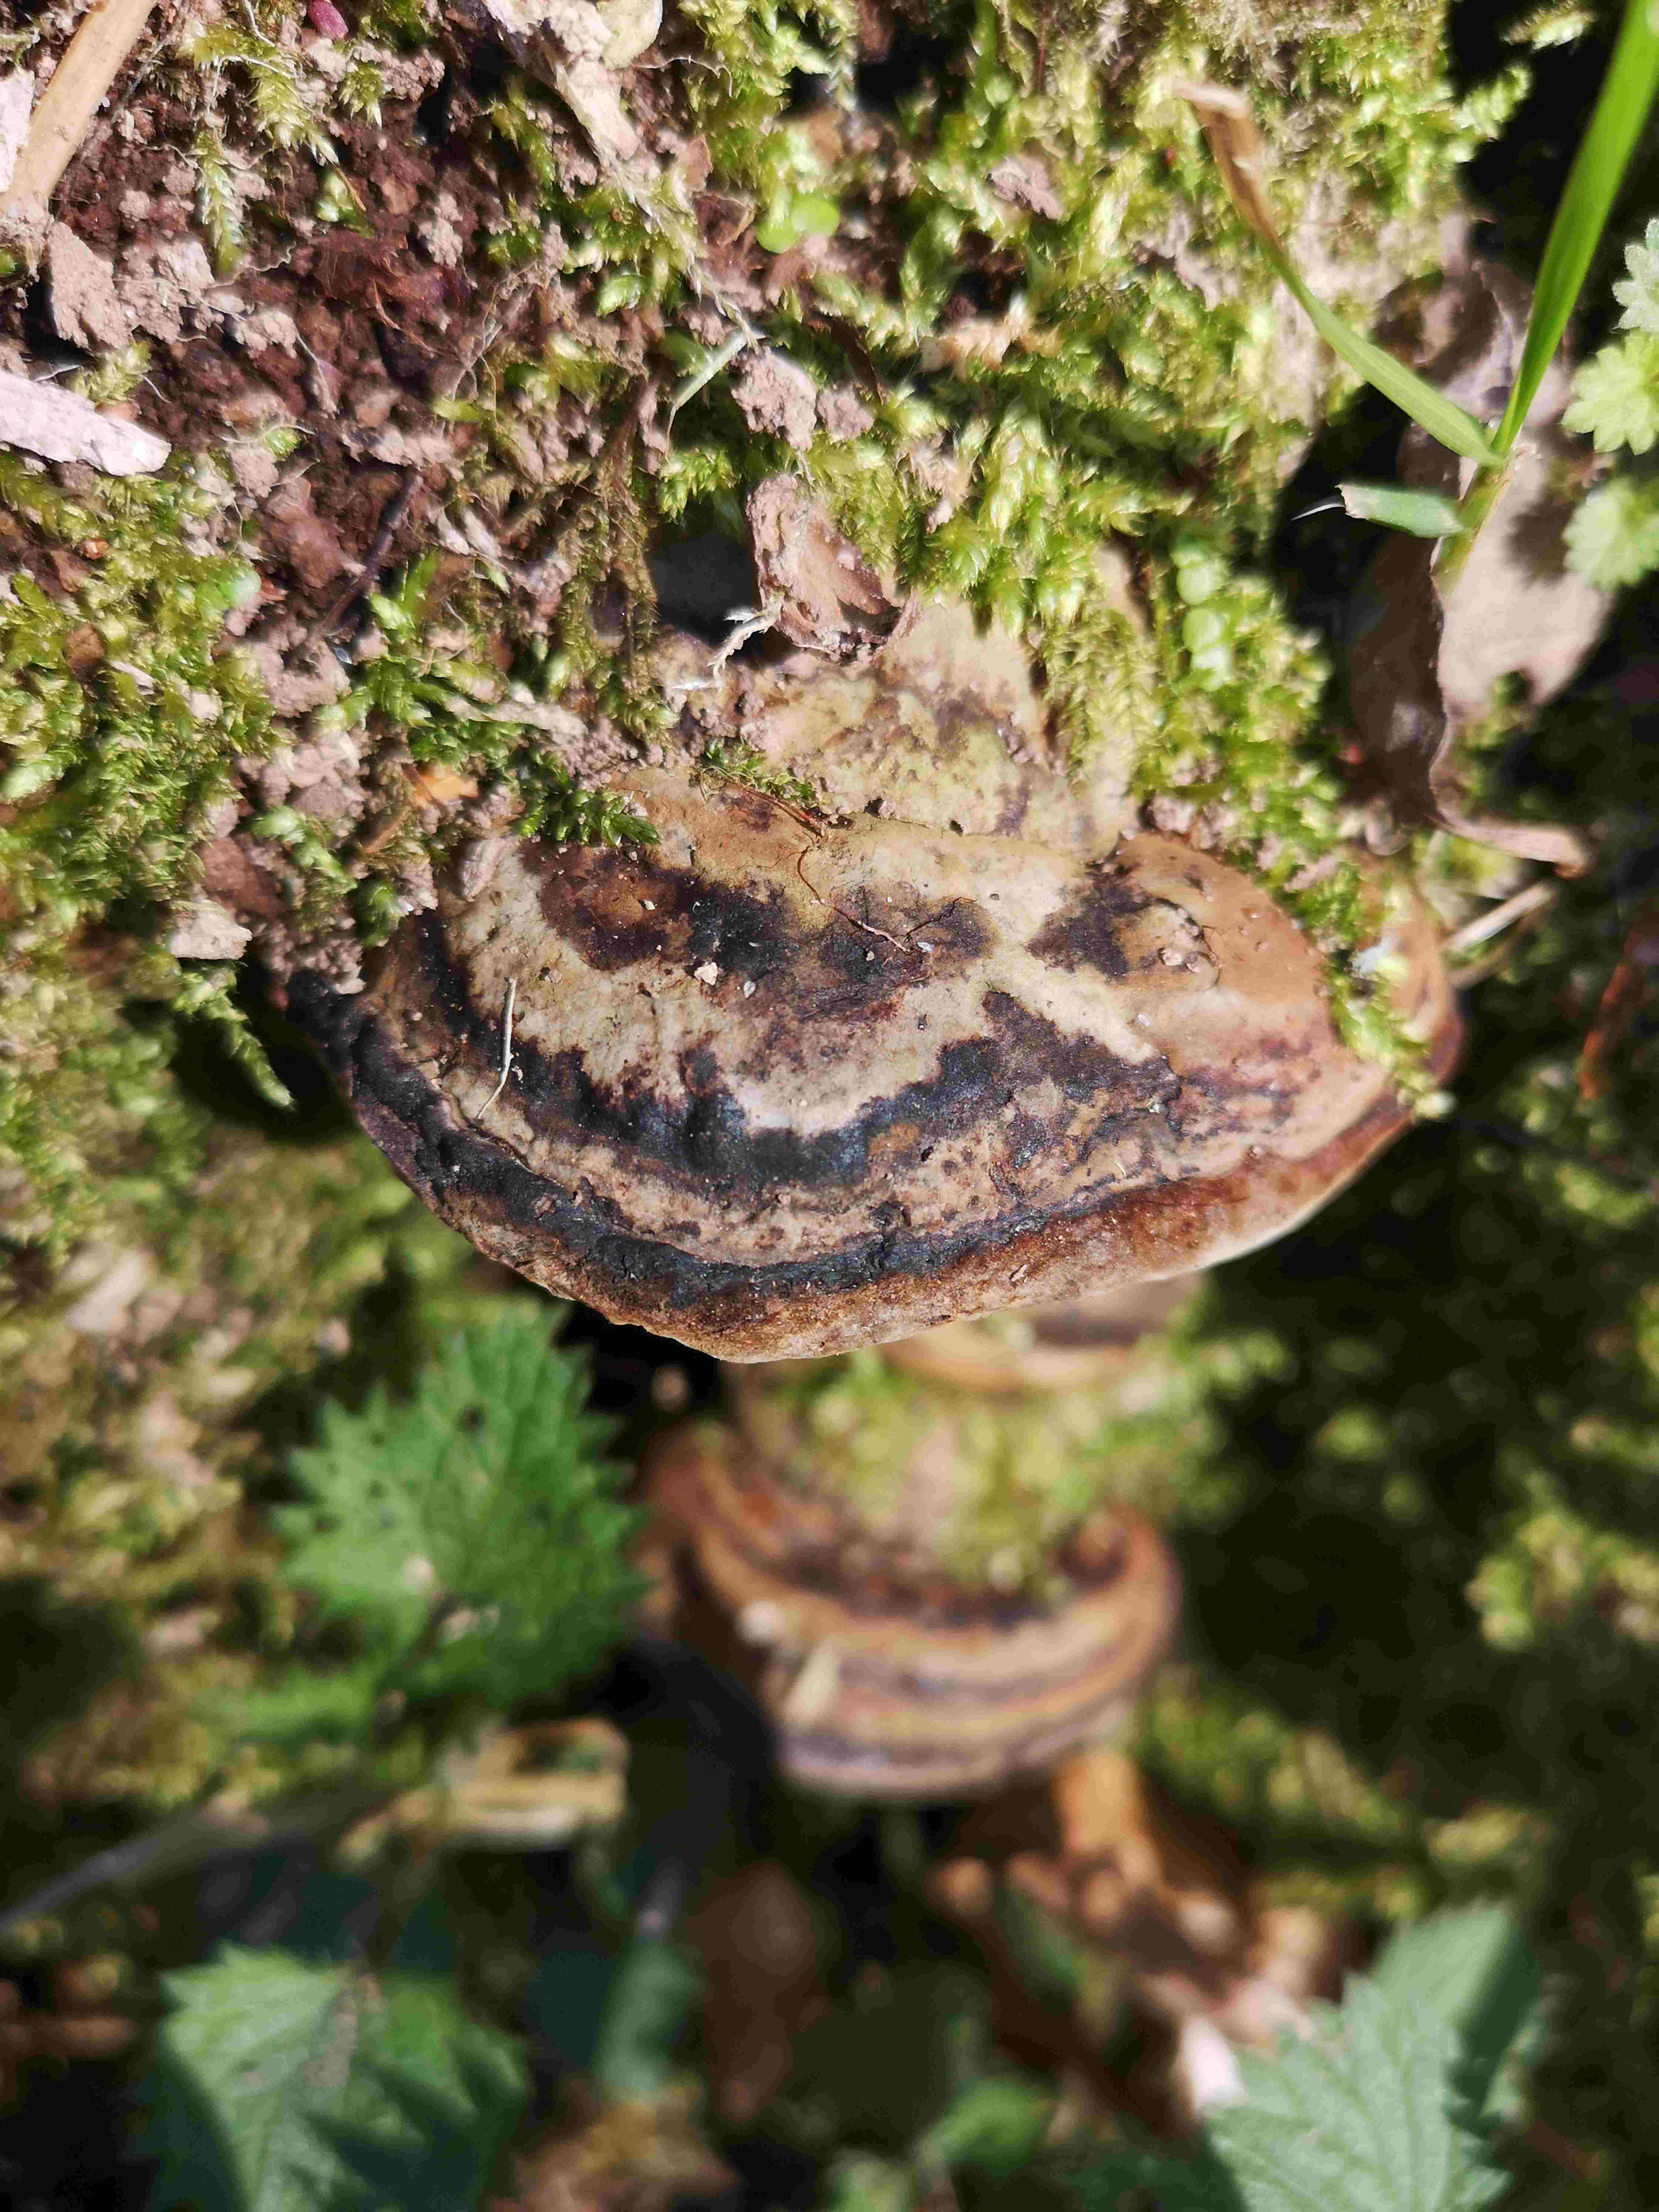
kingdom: Fungi
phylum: Basidiomycota
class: Agaricomycetes
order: Polyporales
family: Polyporaceae
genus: Fomes
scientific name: Fomes fomentarius
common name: tøndersvamp
